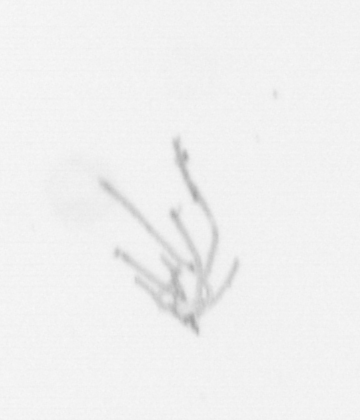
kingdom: Chromista
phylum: Ochrophyta
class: Bacillariophyceae
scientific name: Bacillariophyceae
